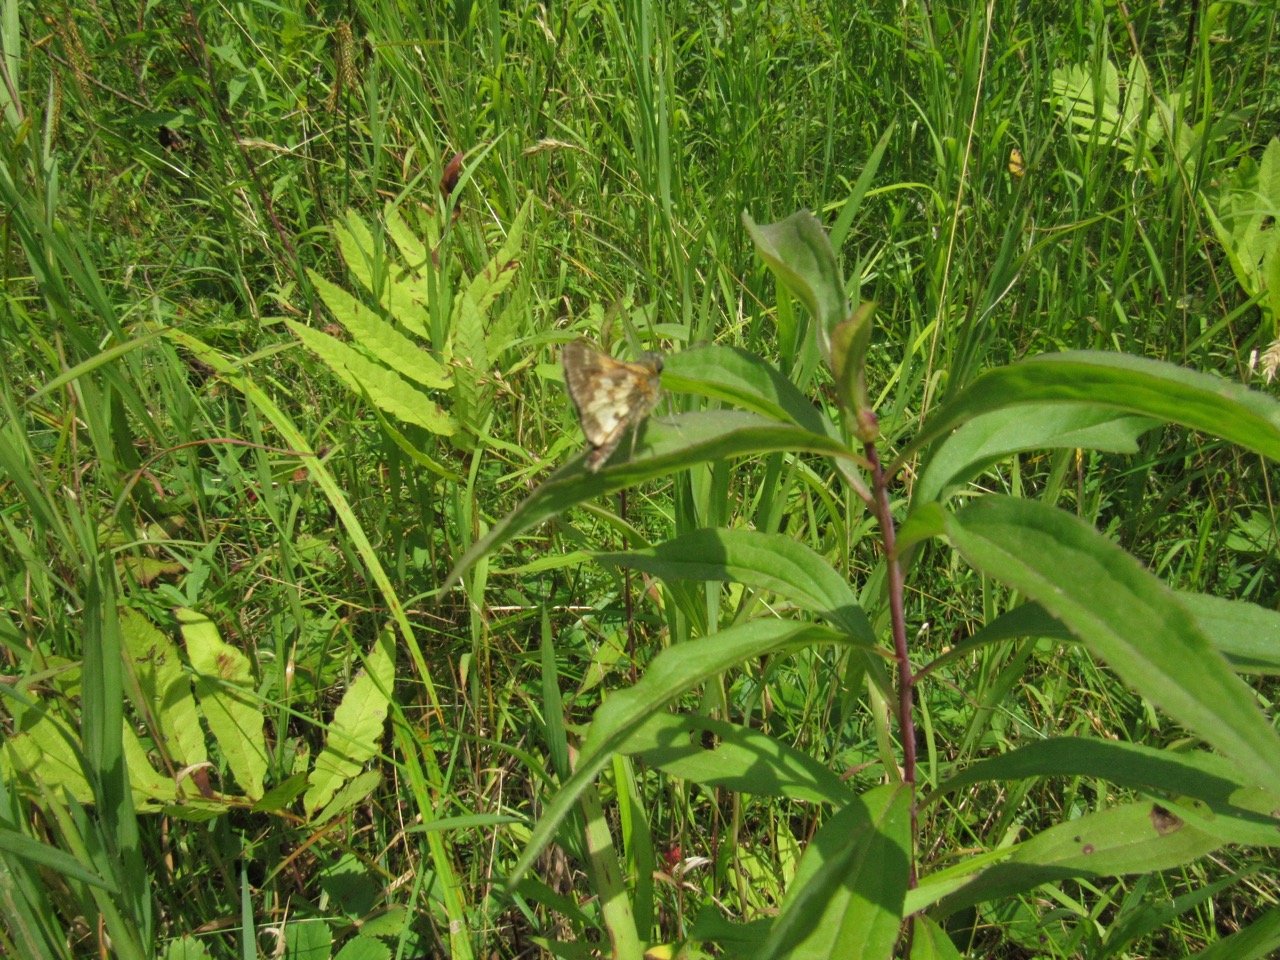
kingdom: Animalia
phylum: Arthropoda
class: Insecta
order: Lepidoptera
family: Hesperiidae
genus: Polites
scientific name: Polites coras
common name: Peck's Skipper
